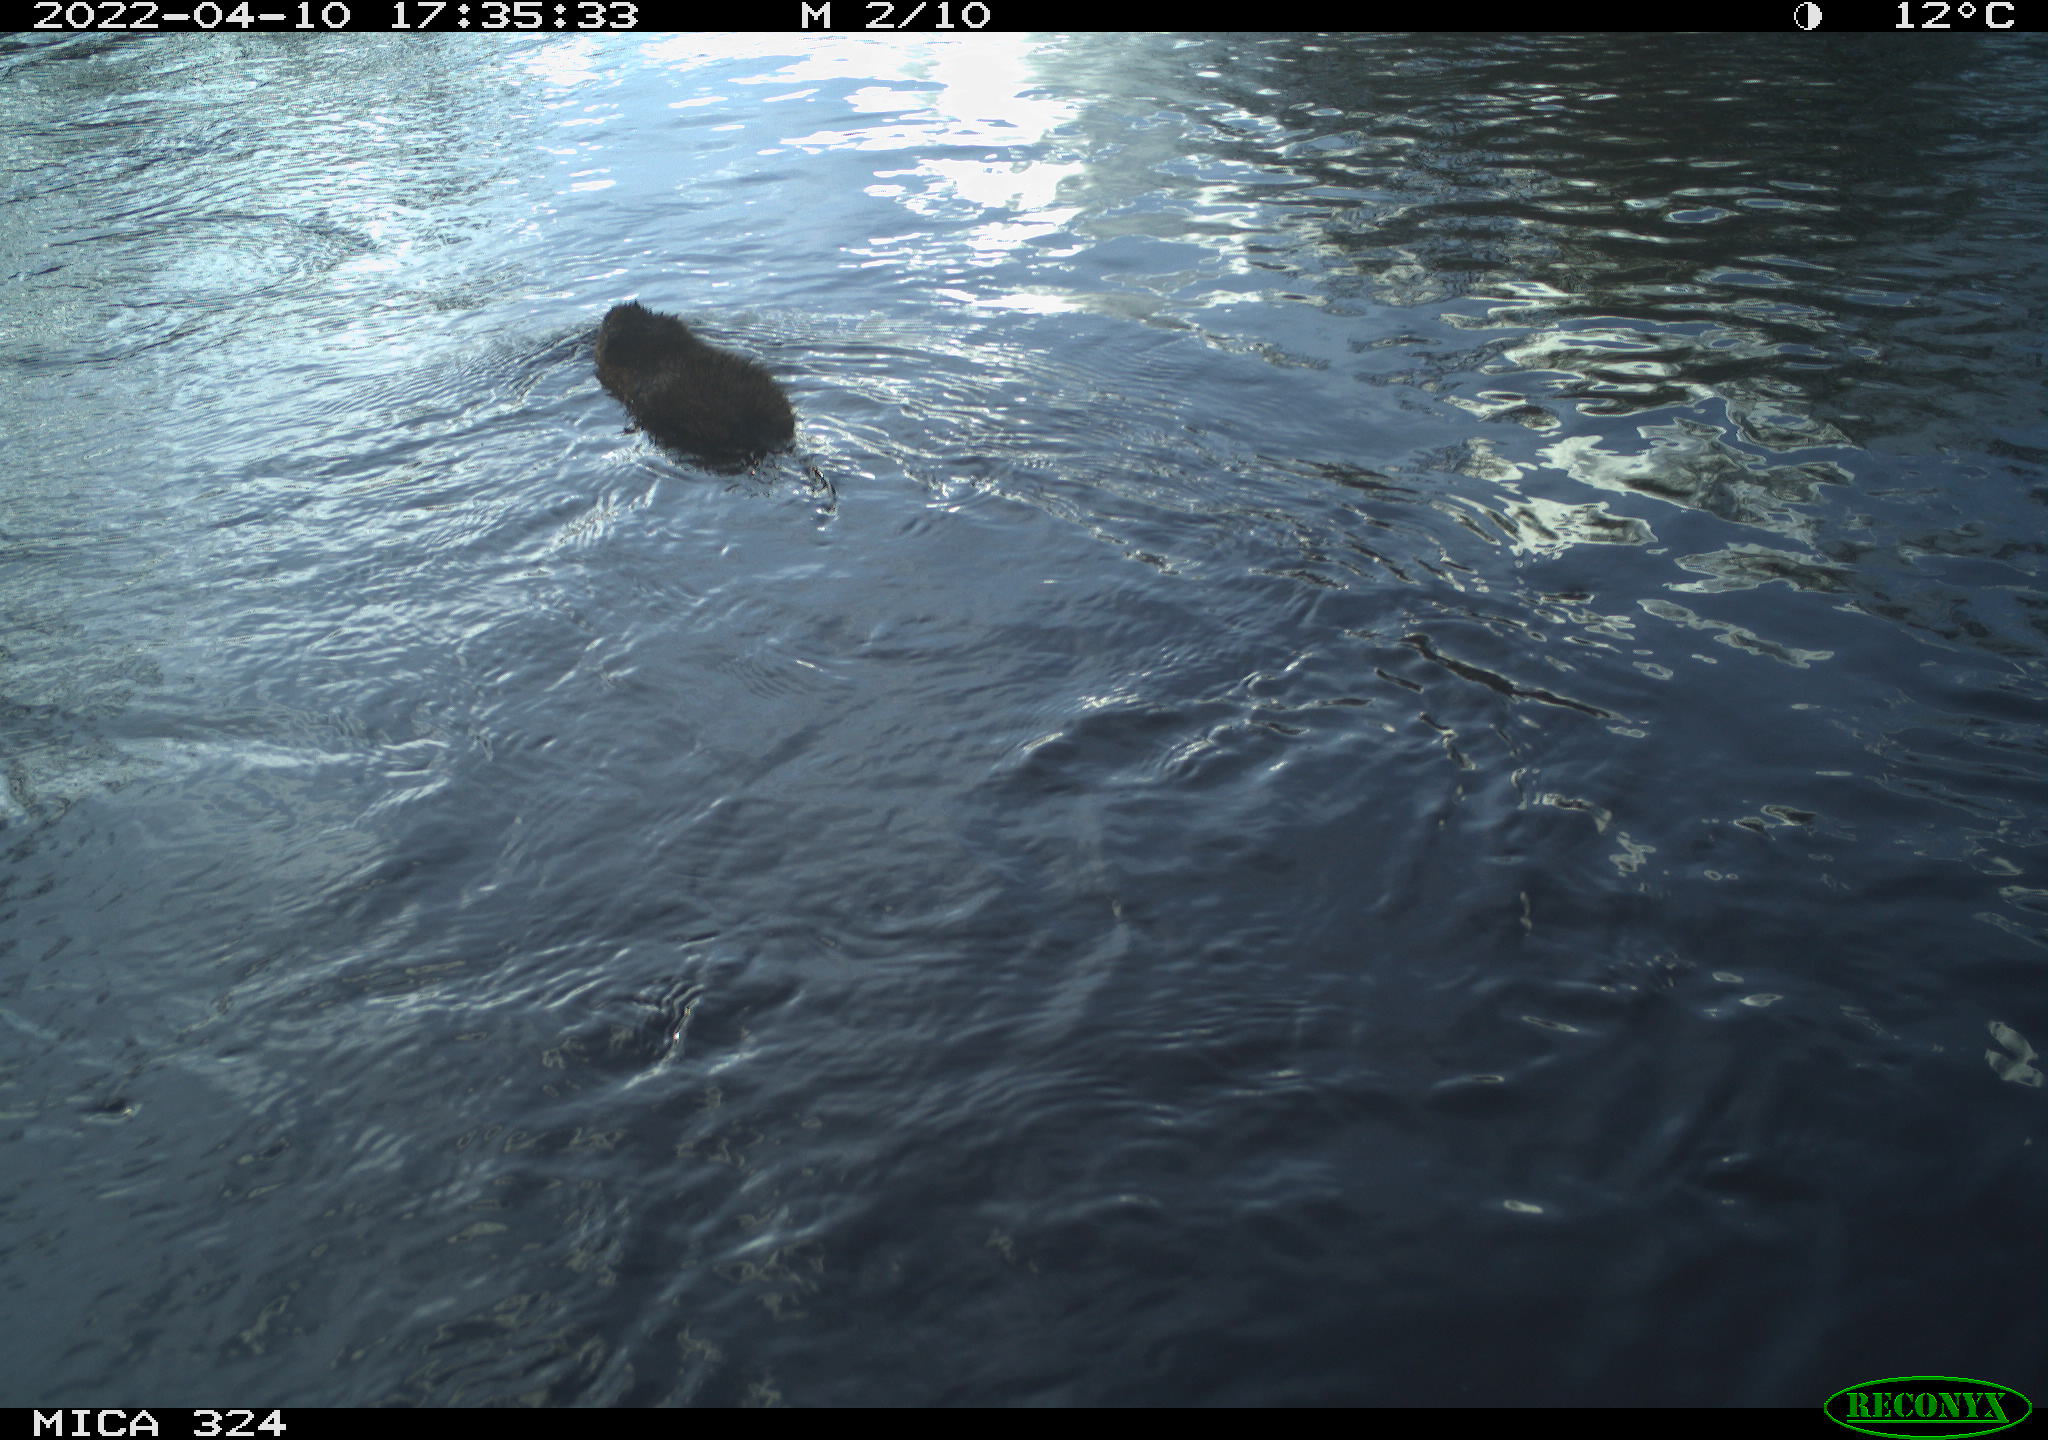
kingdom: Animalia
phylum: Chordata
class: Mammalia
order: Rodentia
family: Cricetidae
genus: Ondatra
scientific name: Ondatra zibethicus
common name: Muskrat
